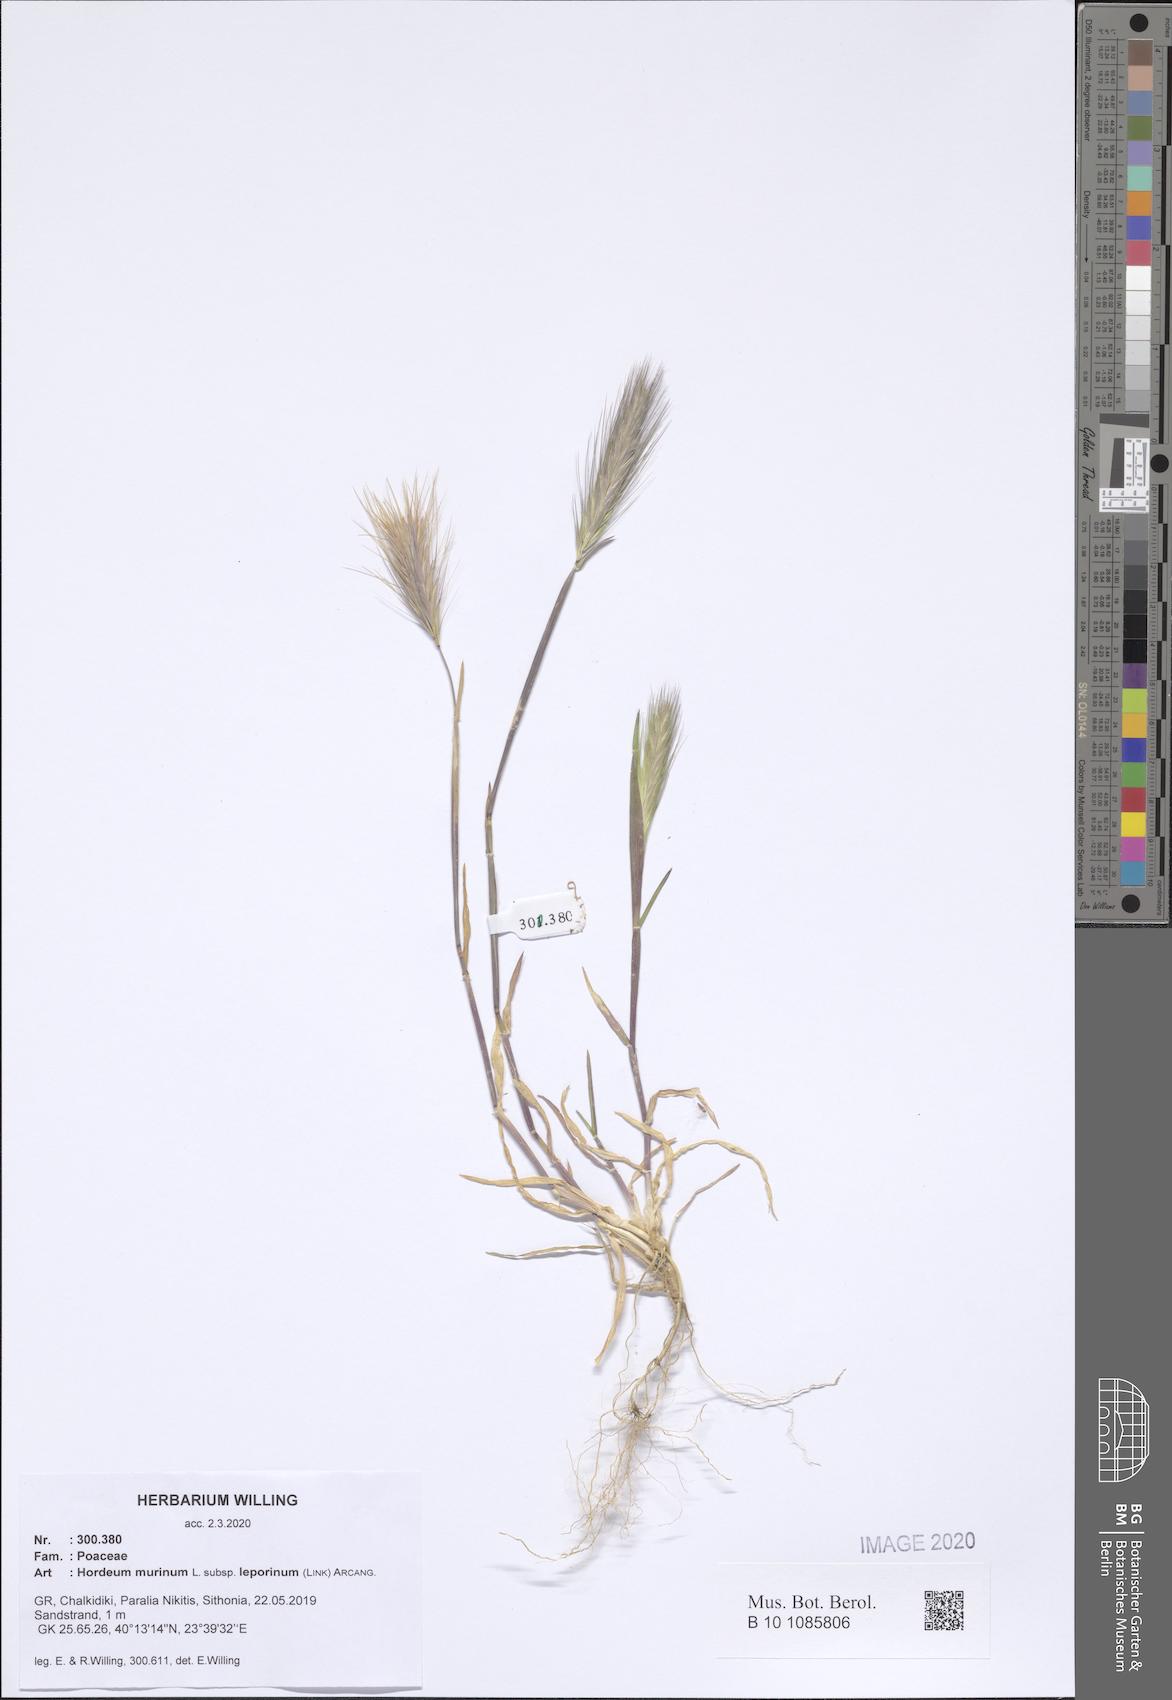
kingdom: Plantae
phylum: Tracheophyta
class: Liliopsida
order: Poales
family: Poaceae
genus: Hordeum
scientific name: Hordeum murinum
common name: Wall barley
